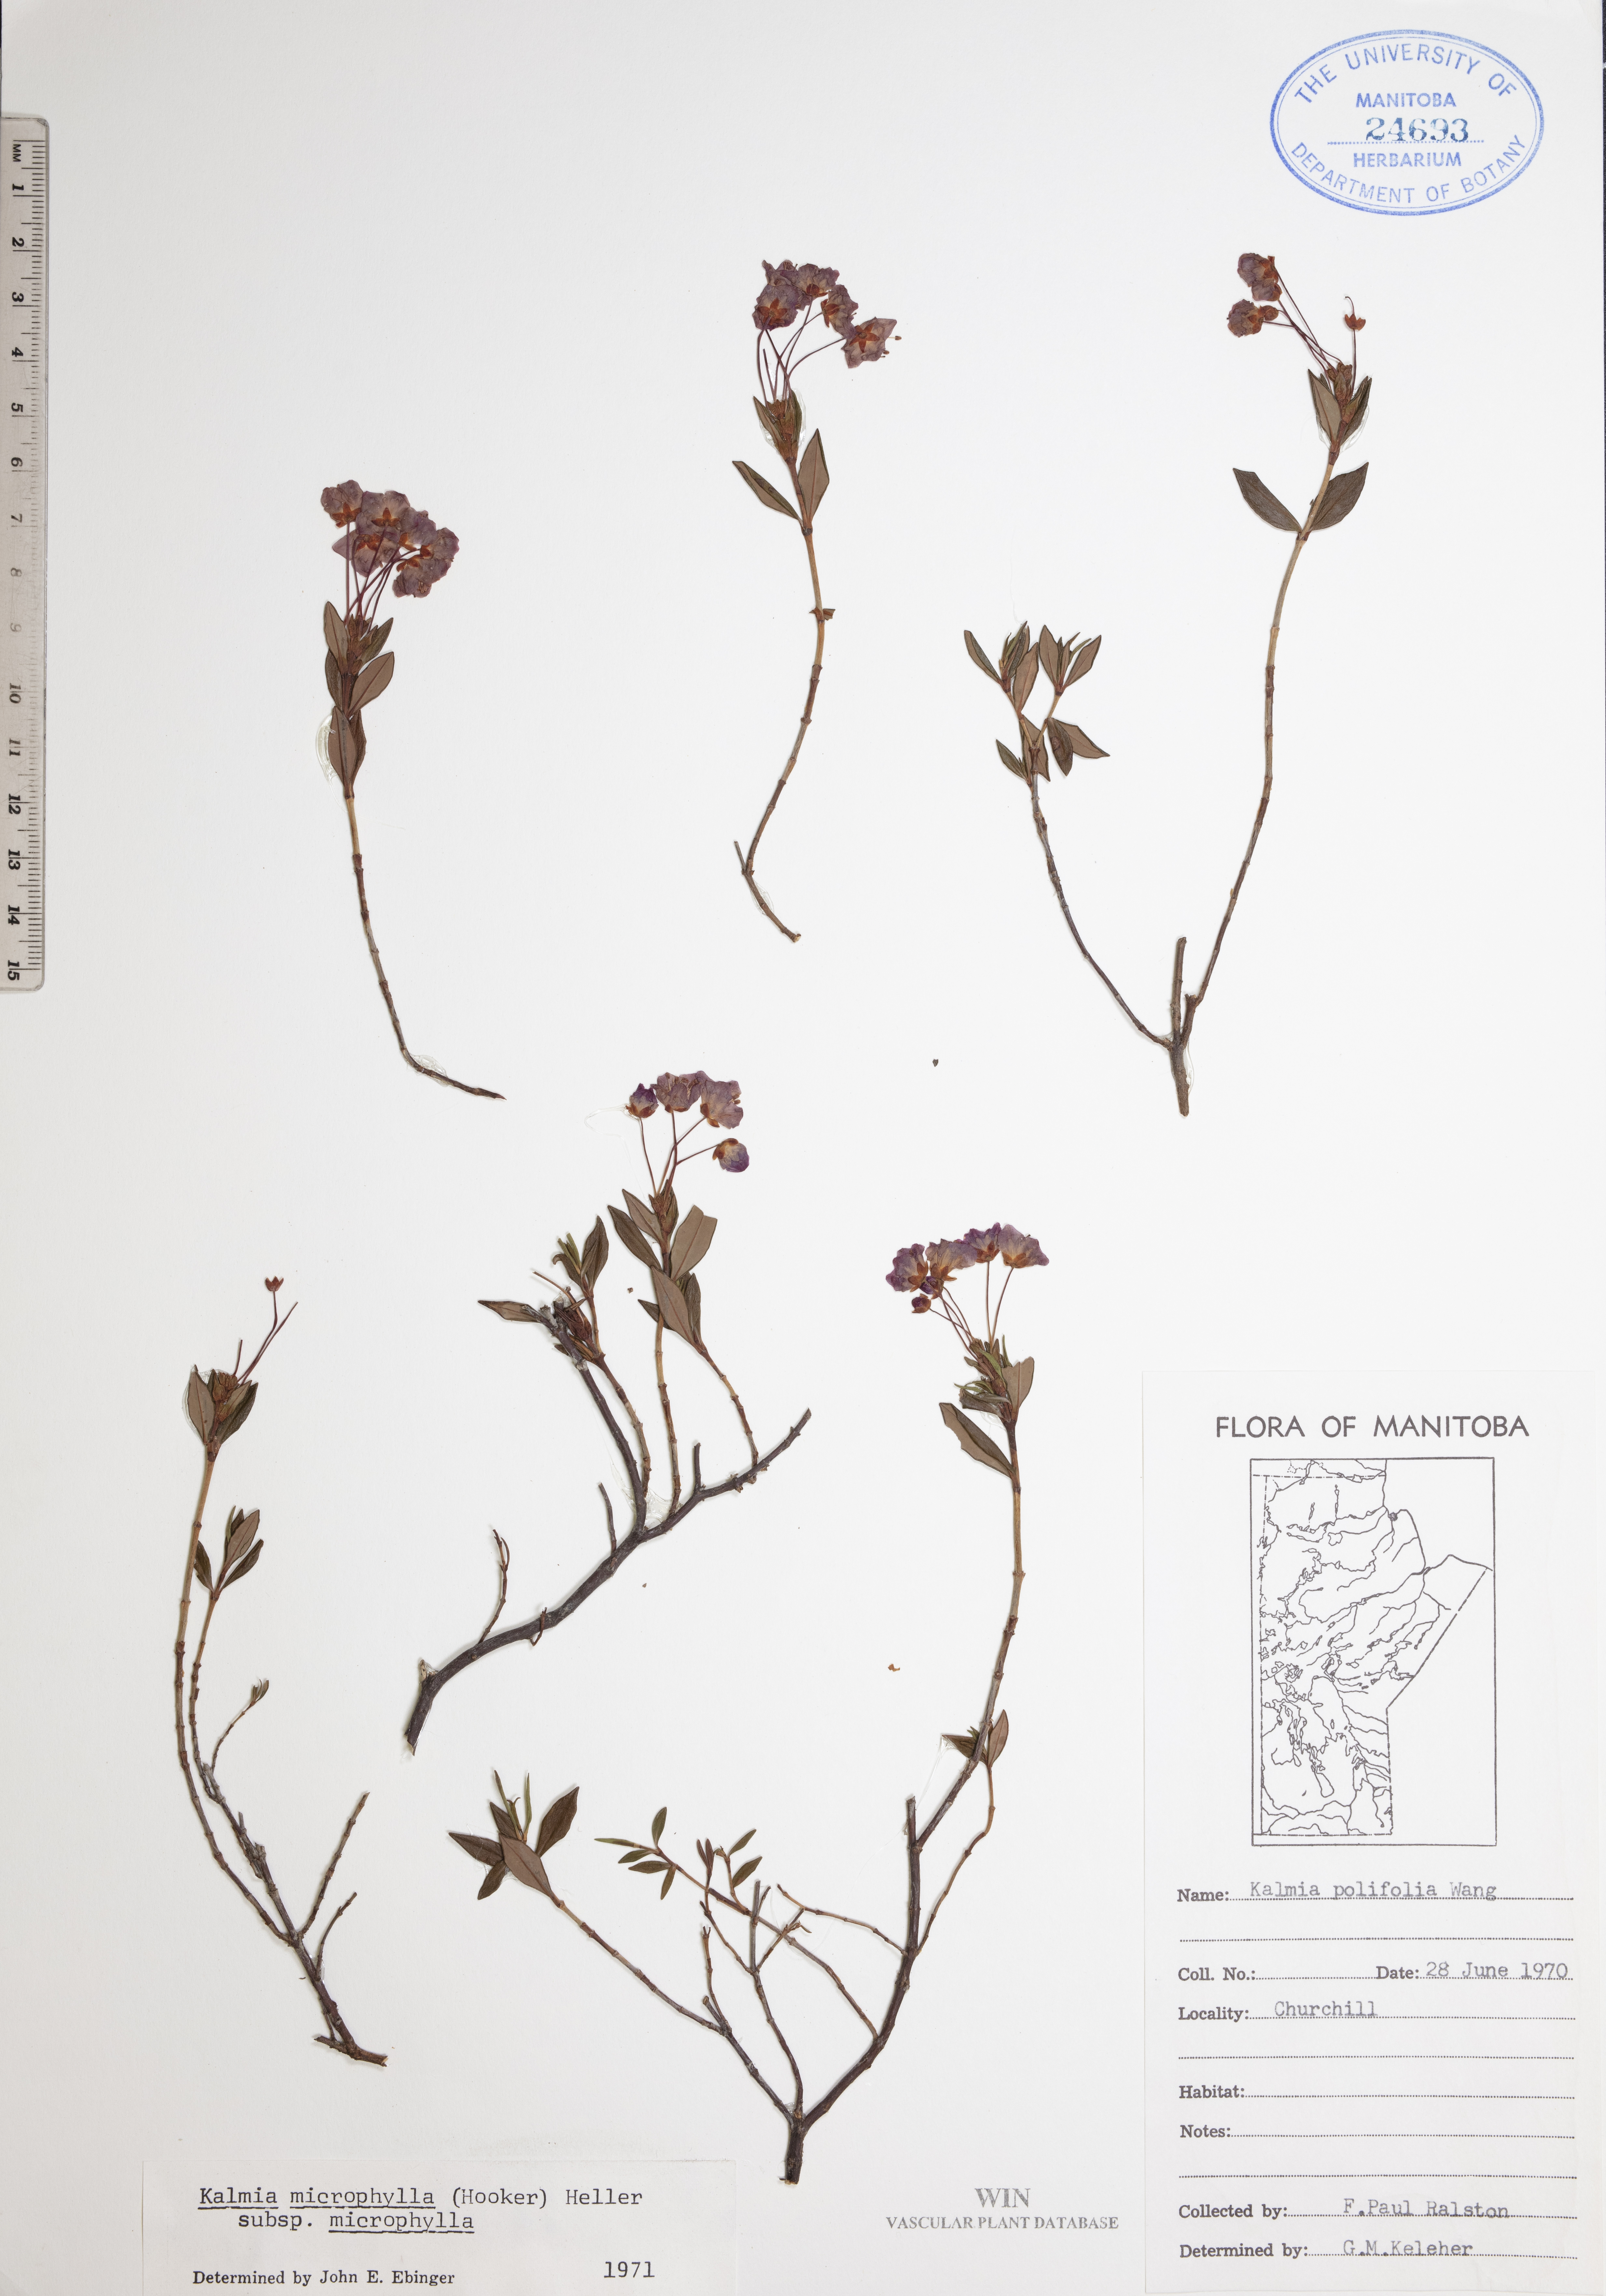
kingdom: Plantae
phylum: Tracheophyta
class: Magnoliopsida
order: Ericales
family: Ericaceae
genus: Kalmia
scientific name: Kalmia microphylla
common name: Alpine bog laurel
